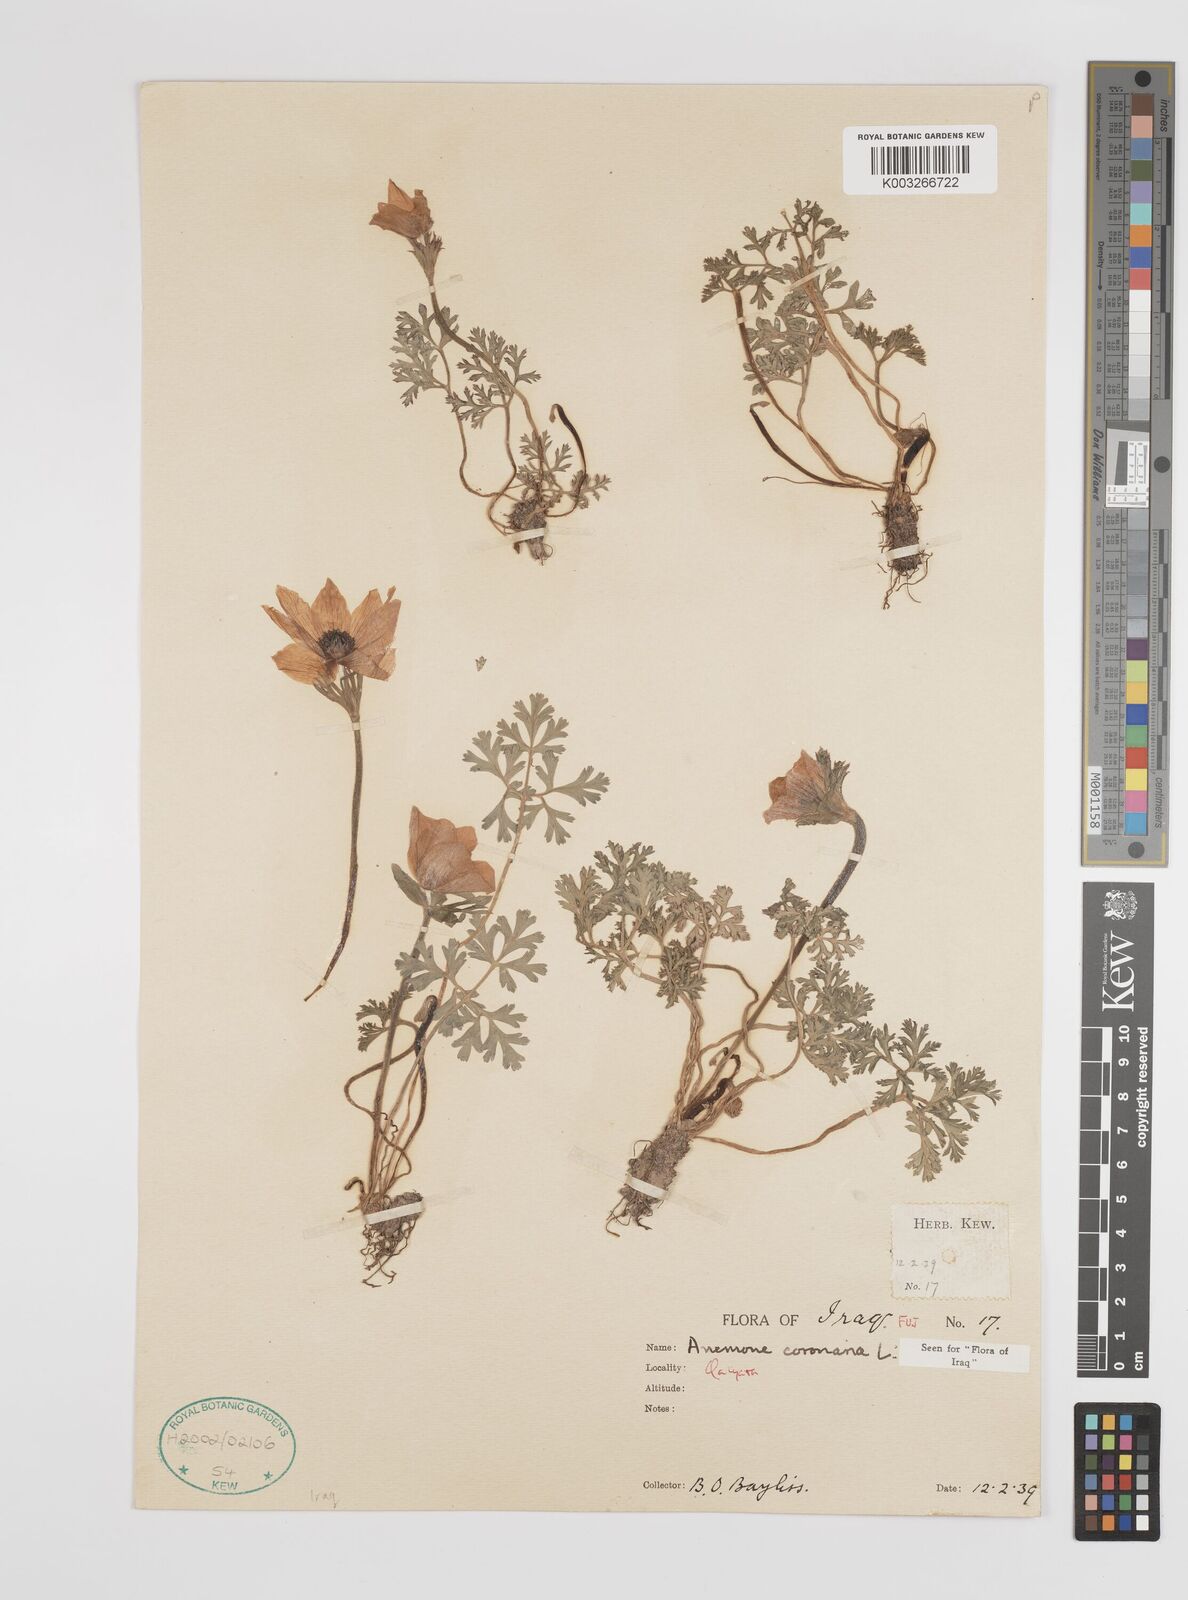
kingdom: Plantae
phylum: Tracheophyta
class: Magnoliopsida
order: Ranunculales
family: Ranunculaceae
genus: Anemone
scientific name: Anemone coronaria
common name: Poppy anemone
